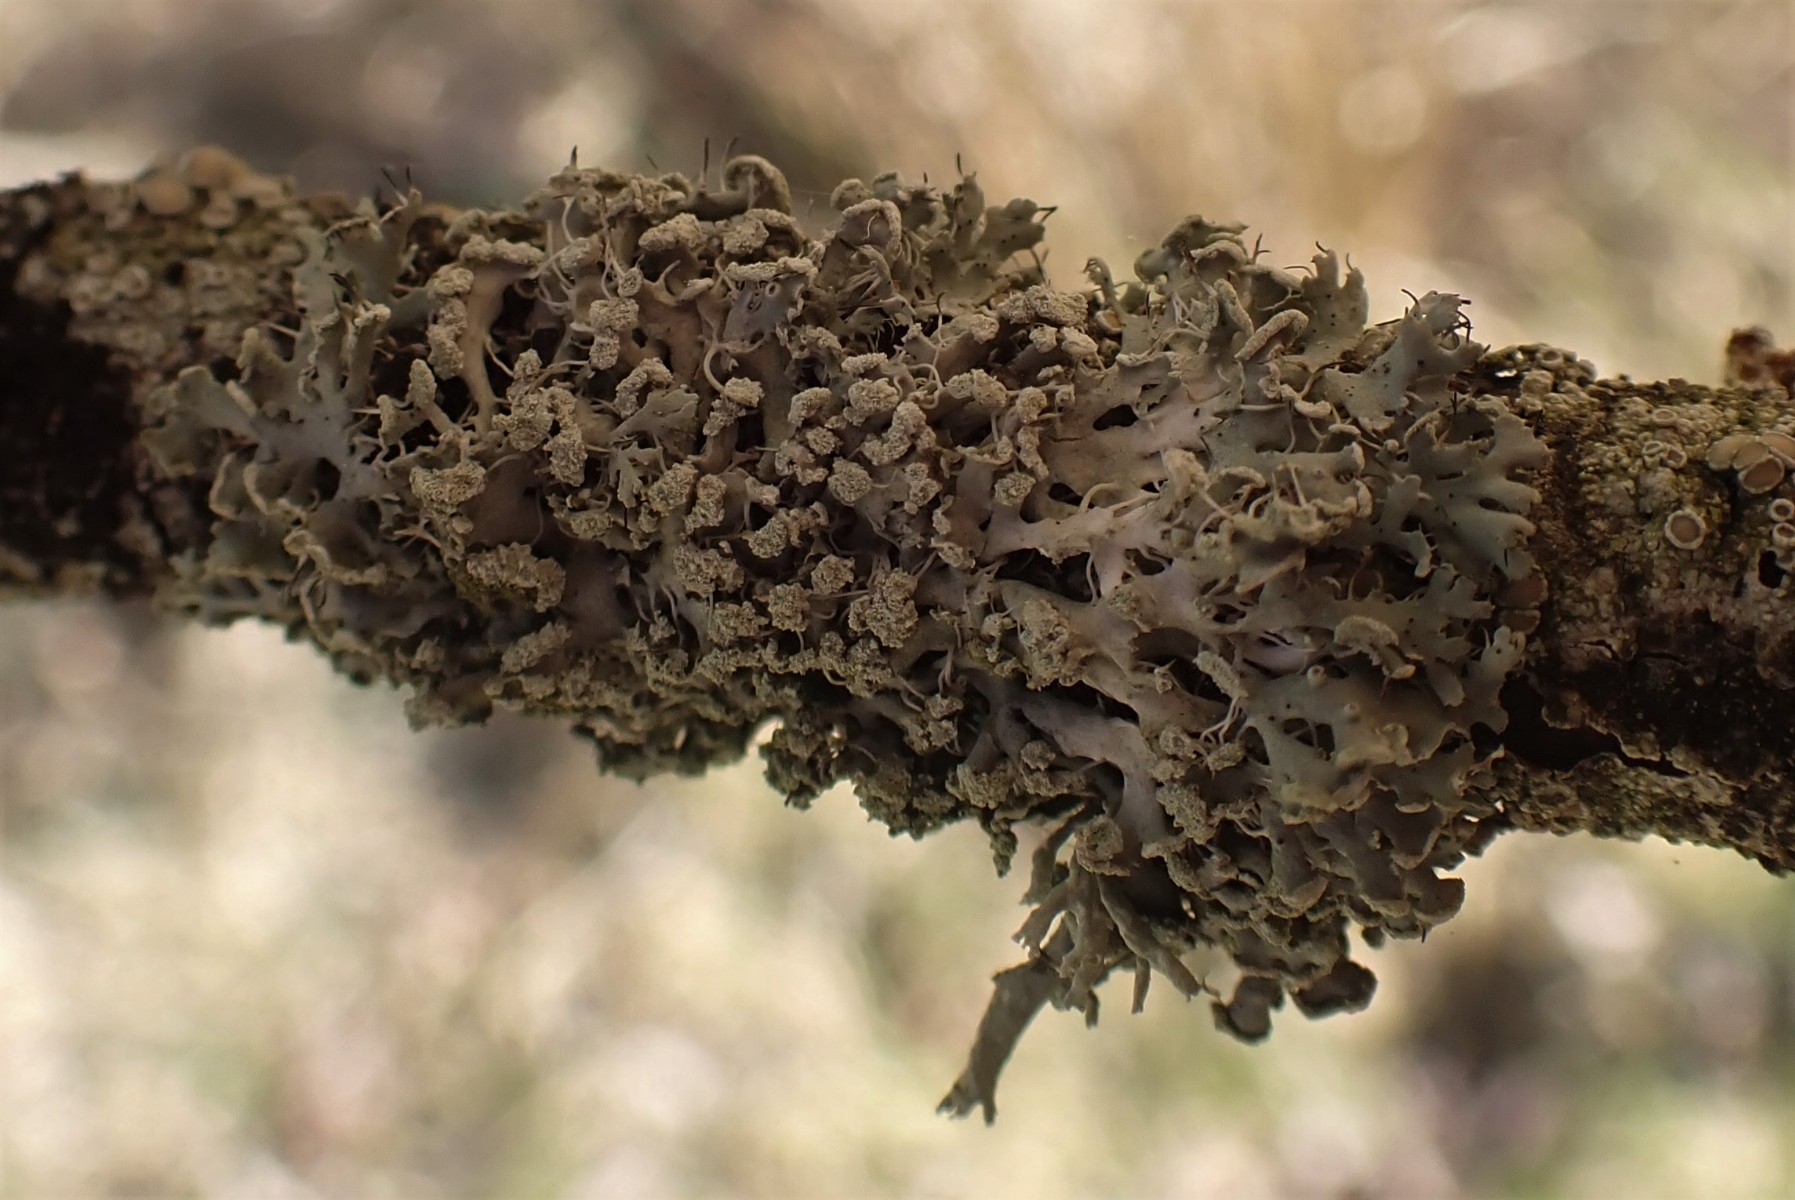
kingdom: Fungi
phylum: Ascomycota
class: Lecanoromycetes
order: Caliciales
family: Physciaceae
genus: Physcia
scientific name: Physcia tenella
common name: spæd rosetlav
